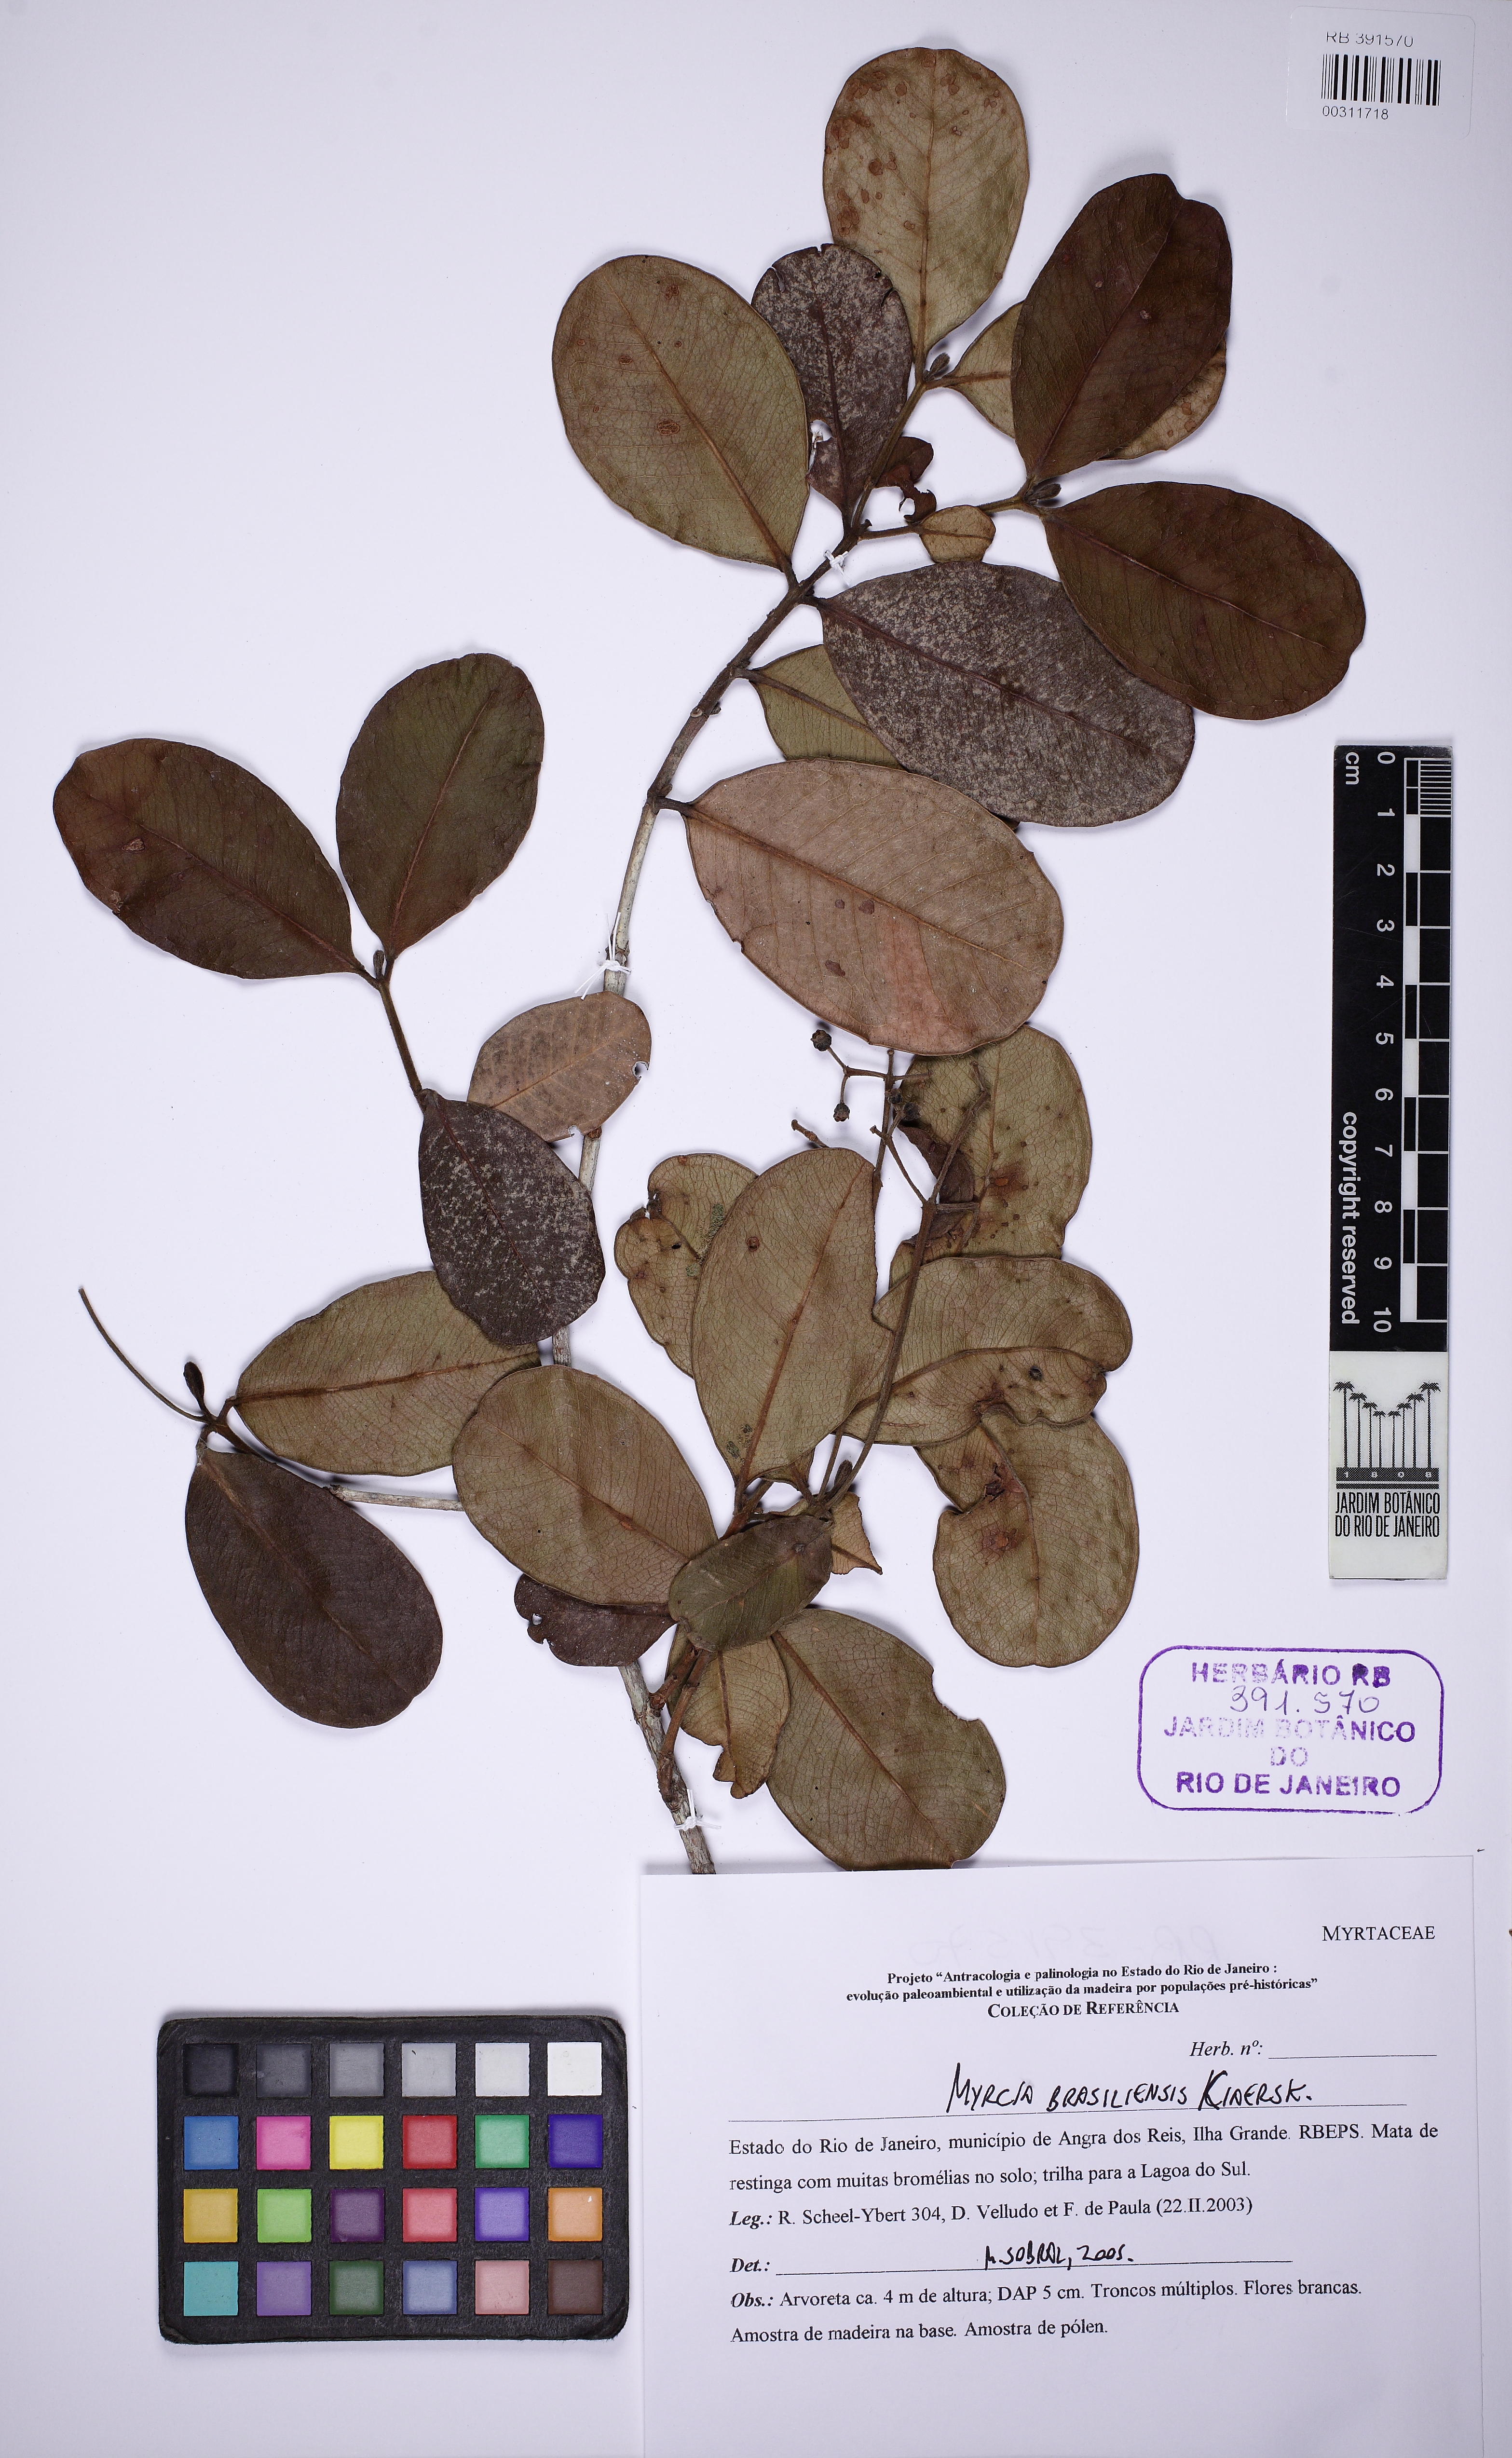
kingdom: Plantae
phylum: Tracheophyta
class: Magnoliopsida
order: Myrtales
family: Myrtaceae
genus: Myrcia
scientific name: Myrcia ilheosensis
